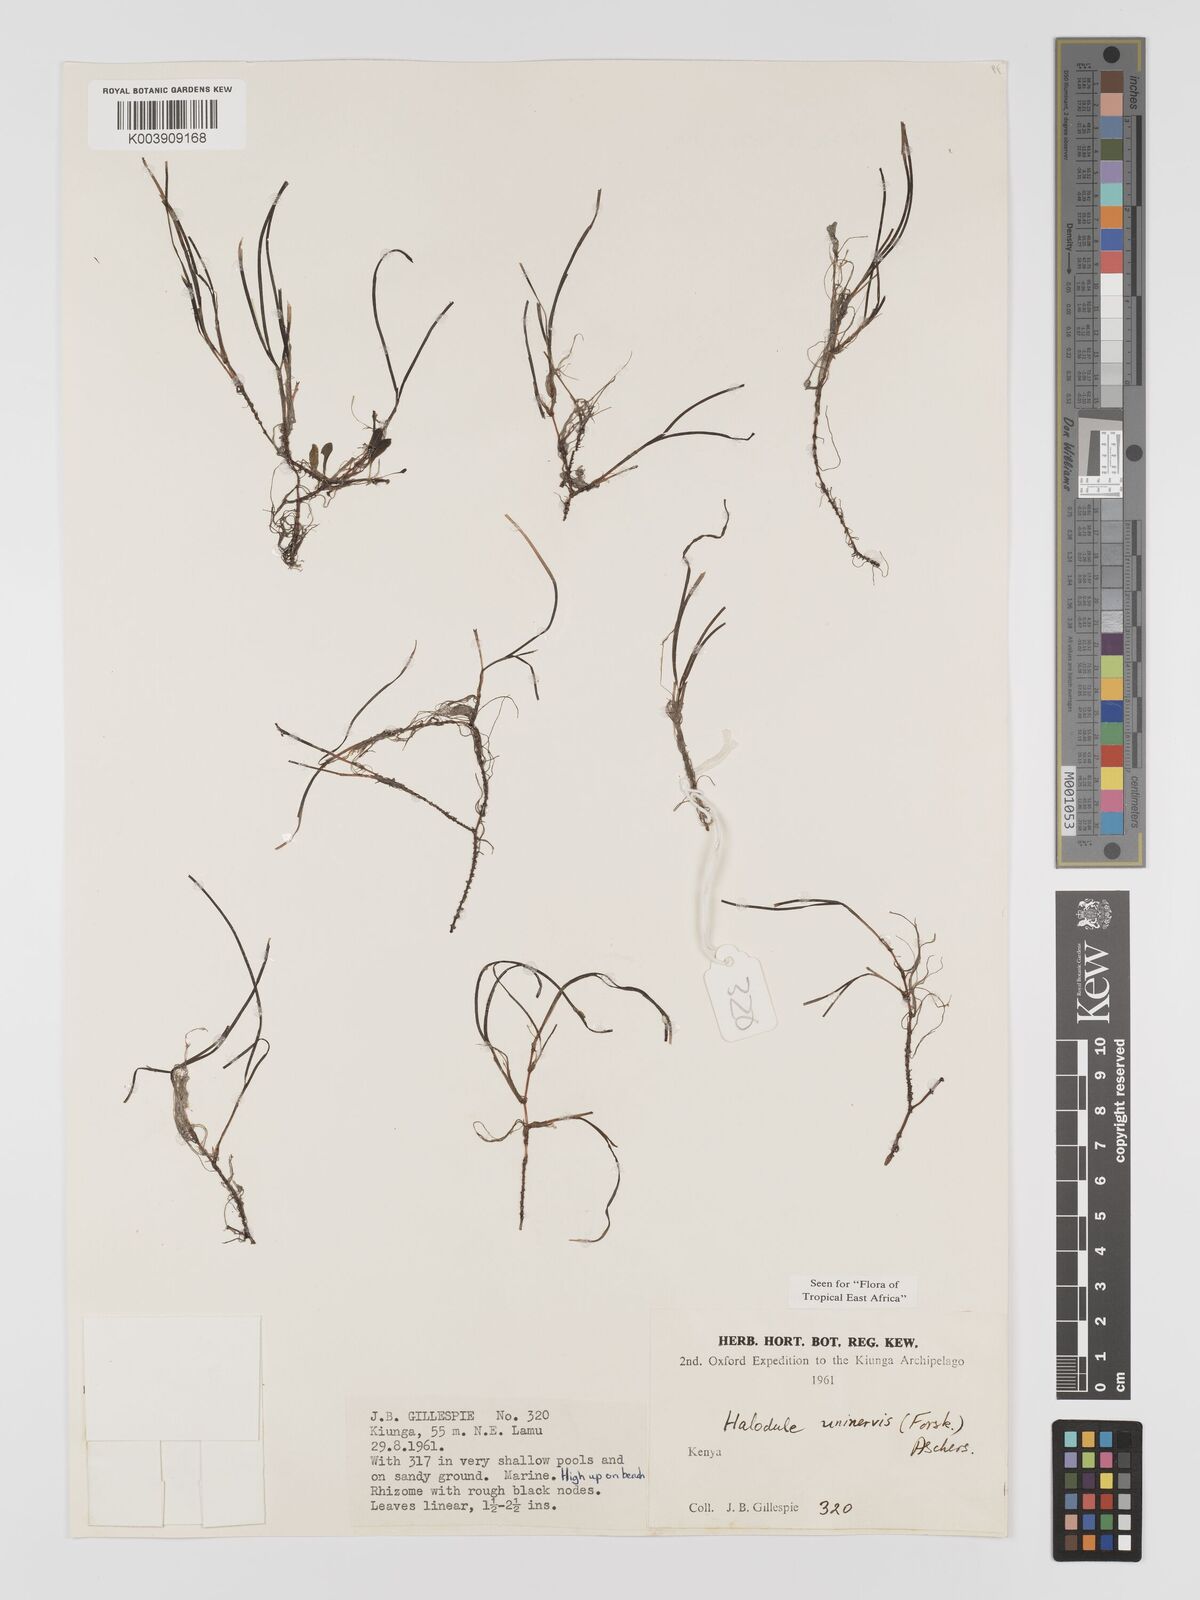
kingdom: Plantae
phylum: Tracheophyta
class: Liliopsida
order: Alismatales
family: Cymodoceaceae
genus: Halodule
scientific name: Halodule uninervis
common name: Narrowleaf seagrass
